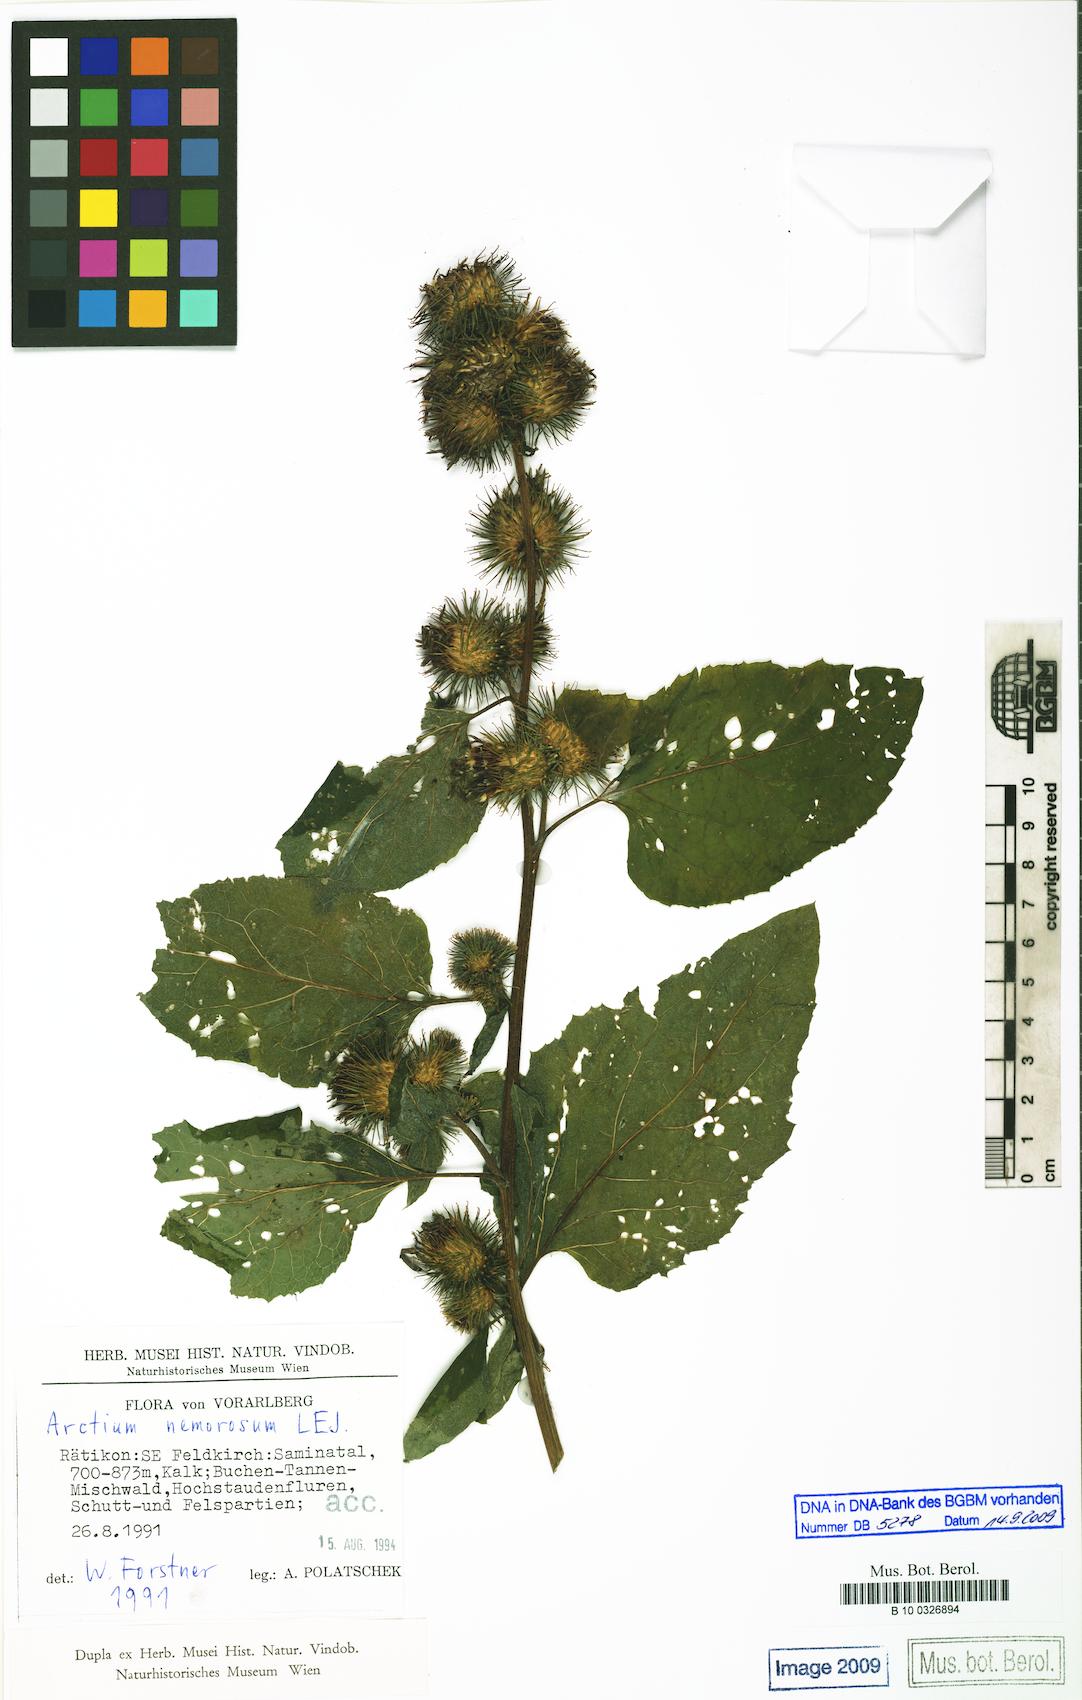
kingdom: Plantae
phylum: Tracheophyta
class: Magnoliopsida
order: Asterales
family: Asteraceae
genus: Arctium
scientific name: Arctium nemorosum
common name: Wood burdock
